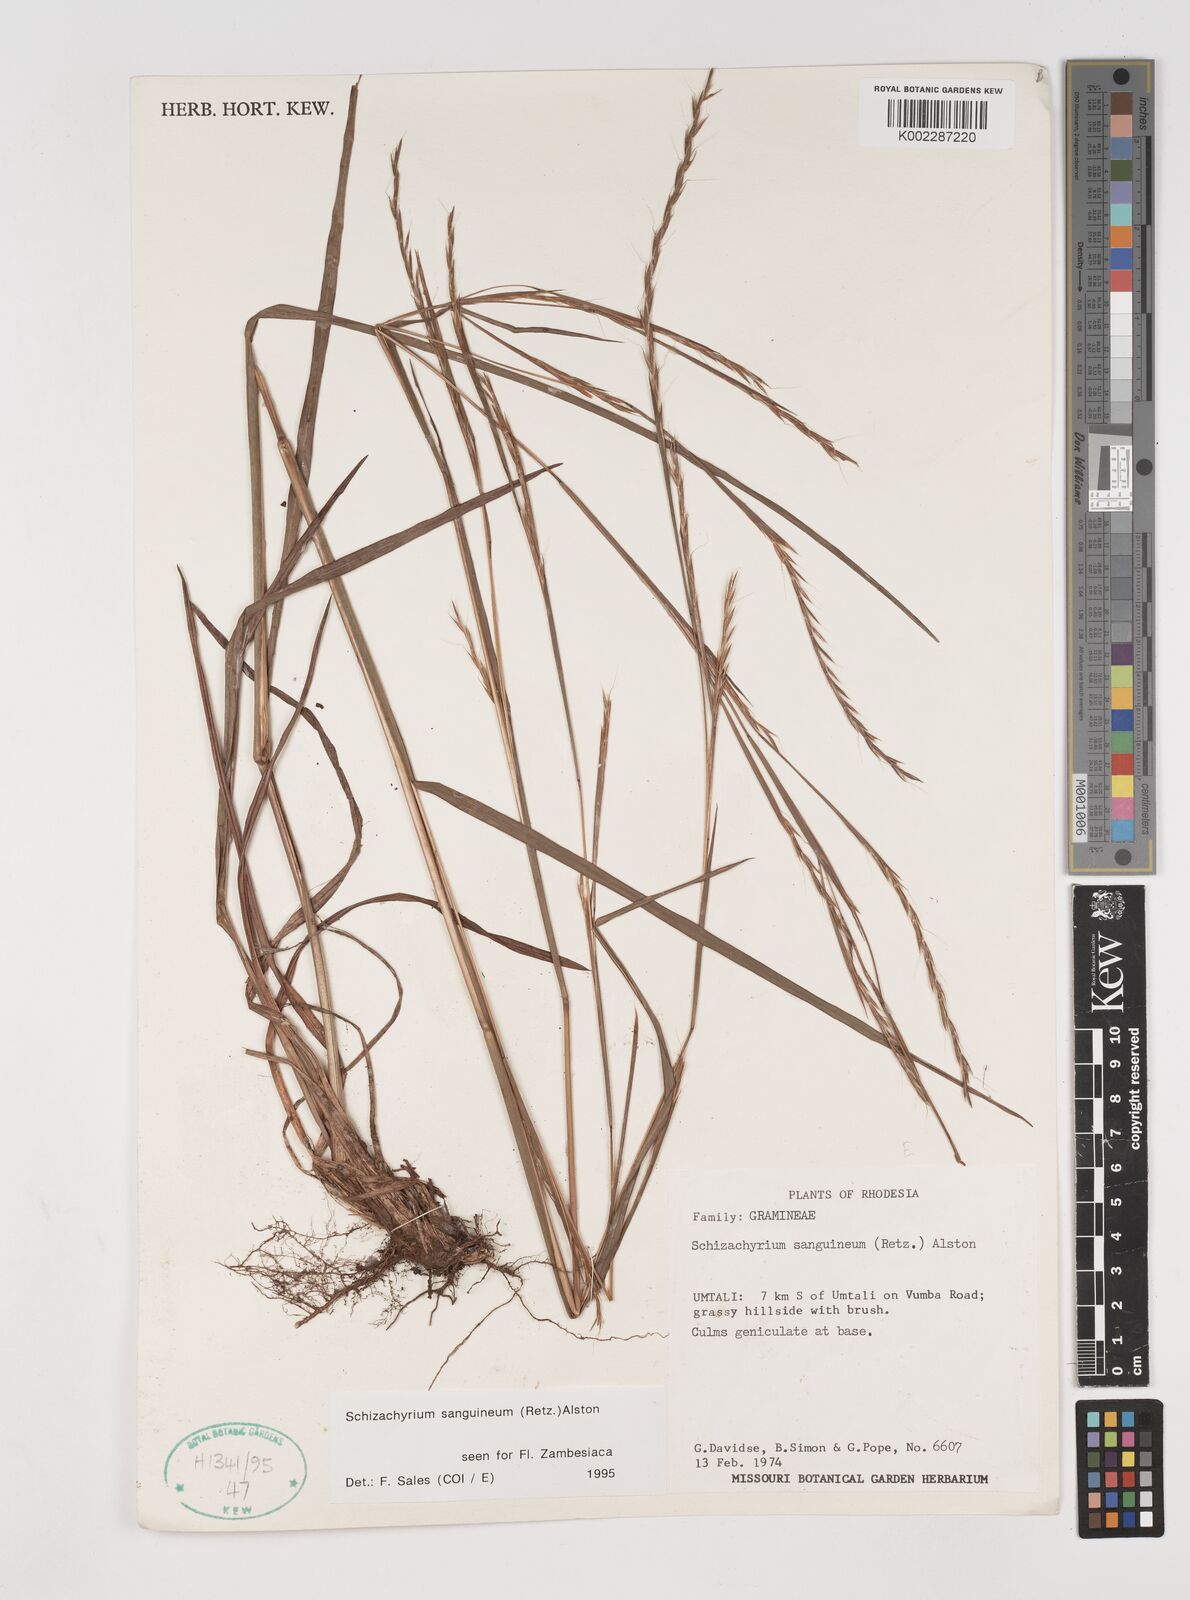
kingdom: Plantae
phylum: Tracheophyta
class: Liliopsida
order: Poales
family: Poaceae
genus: Schizachyrium
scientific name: Schizachyrium sanguineum
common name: Crimson bluestem
